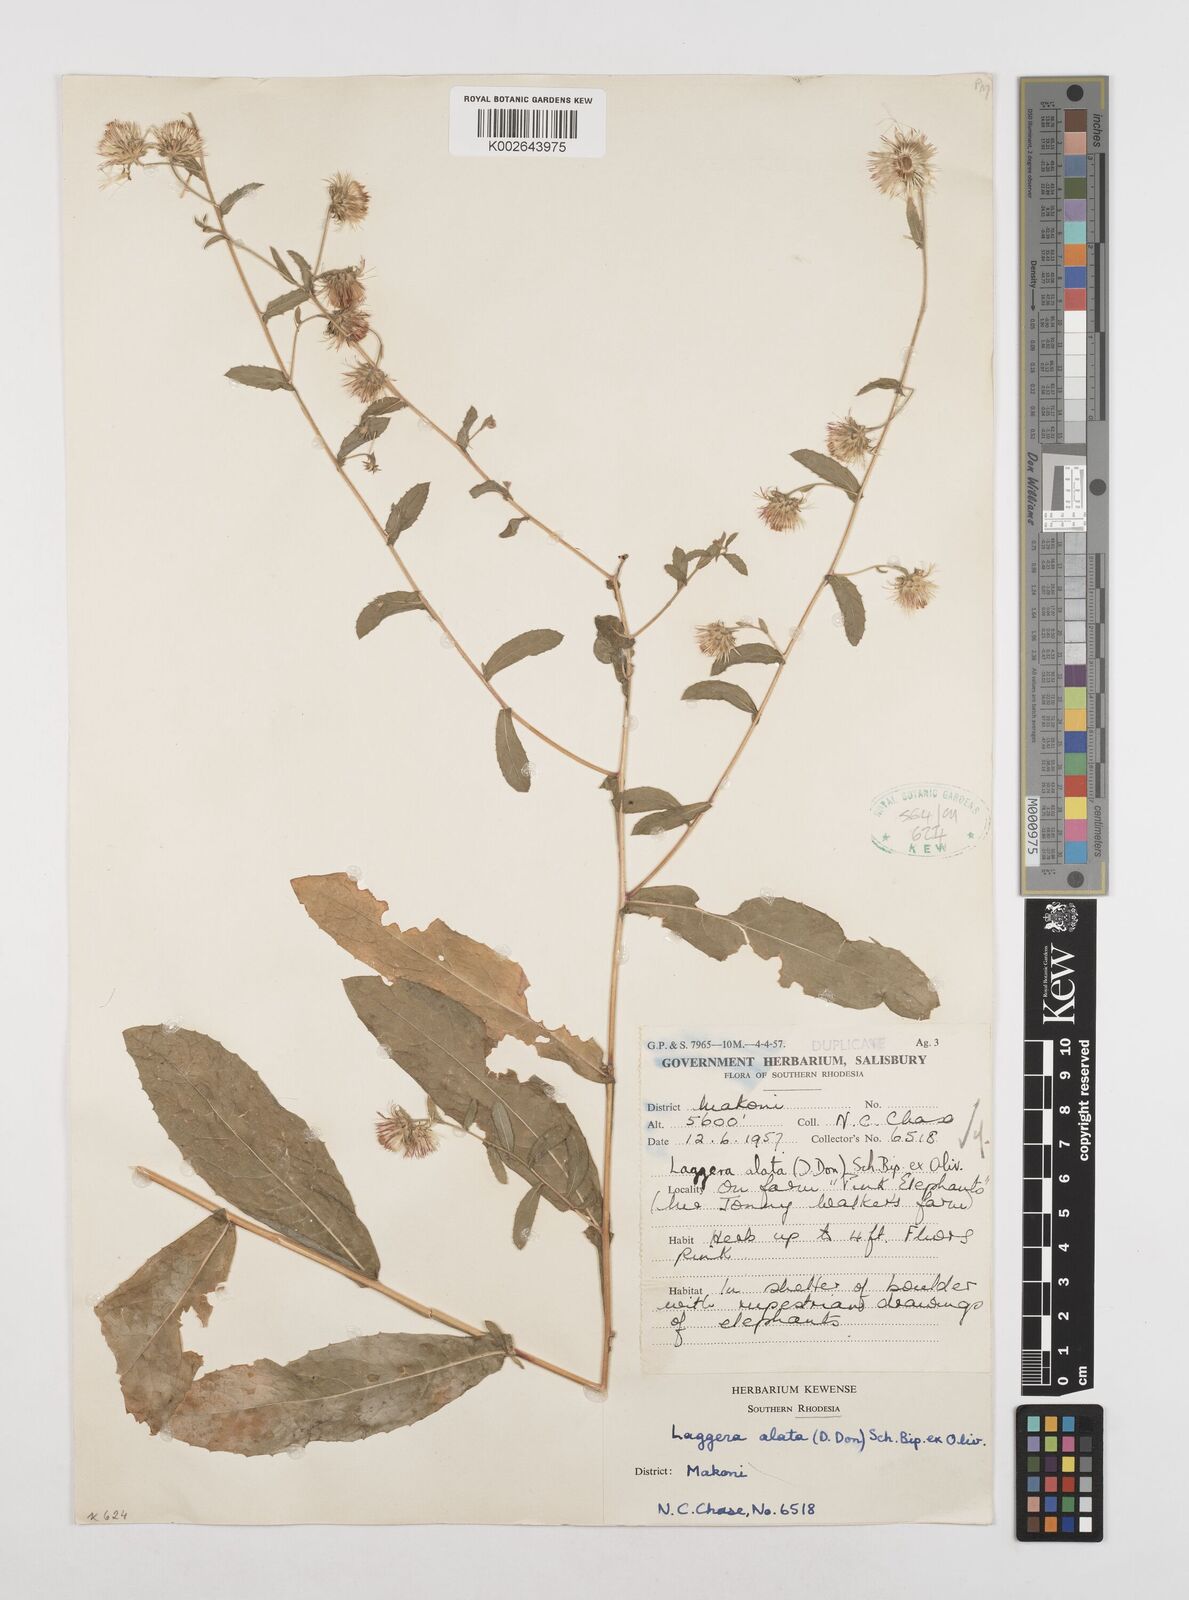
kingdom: Plantae
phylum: Tracheophyta
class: Magnoliopsida
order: Asterales
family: Asteraceae
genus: Laggera
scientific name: Laggera alata
